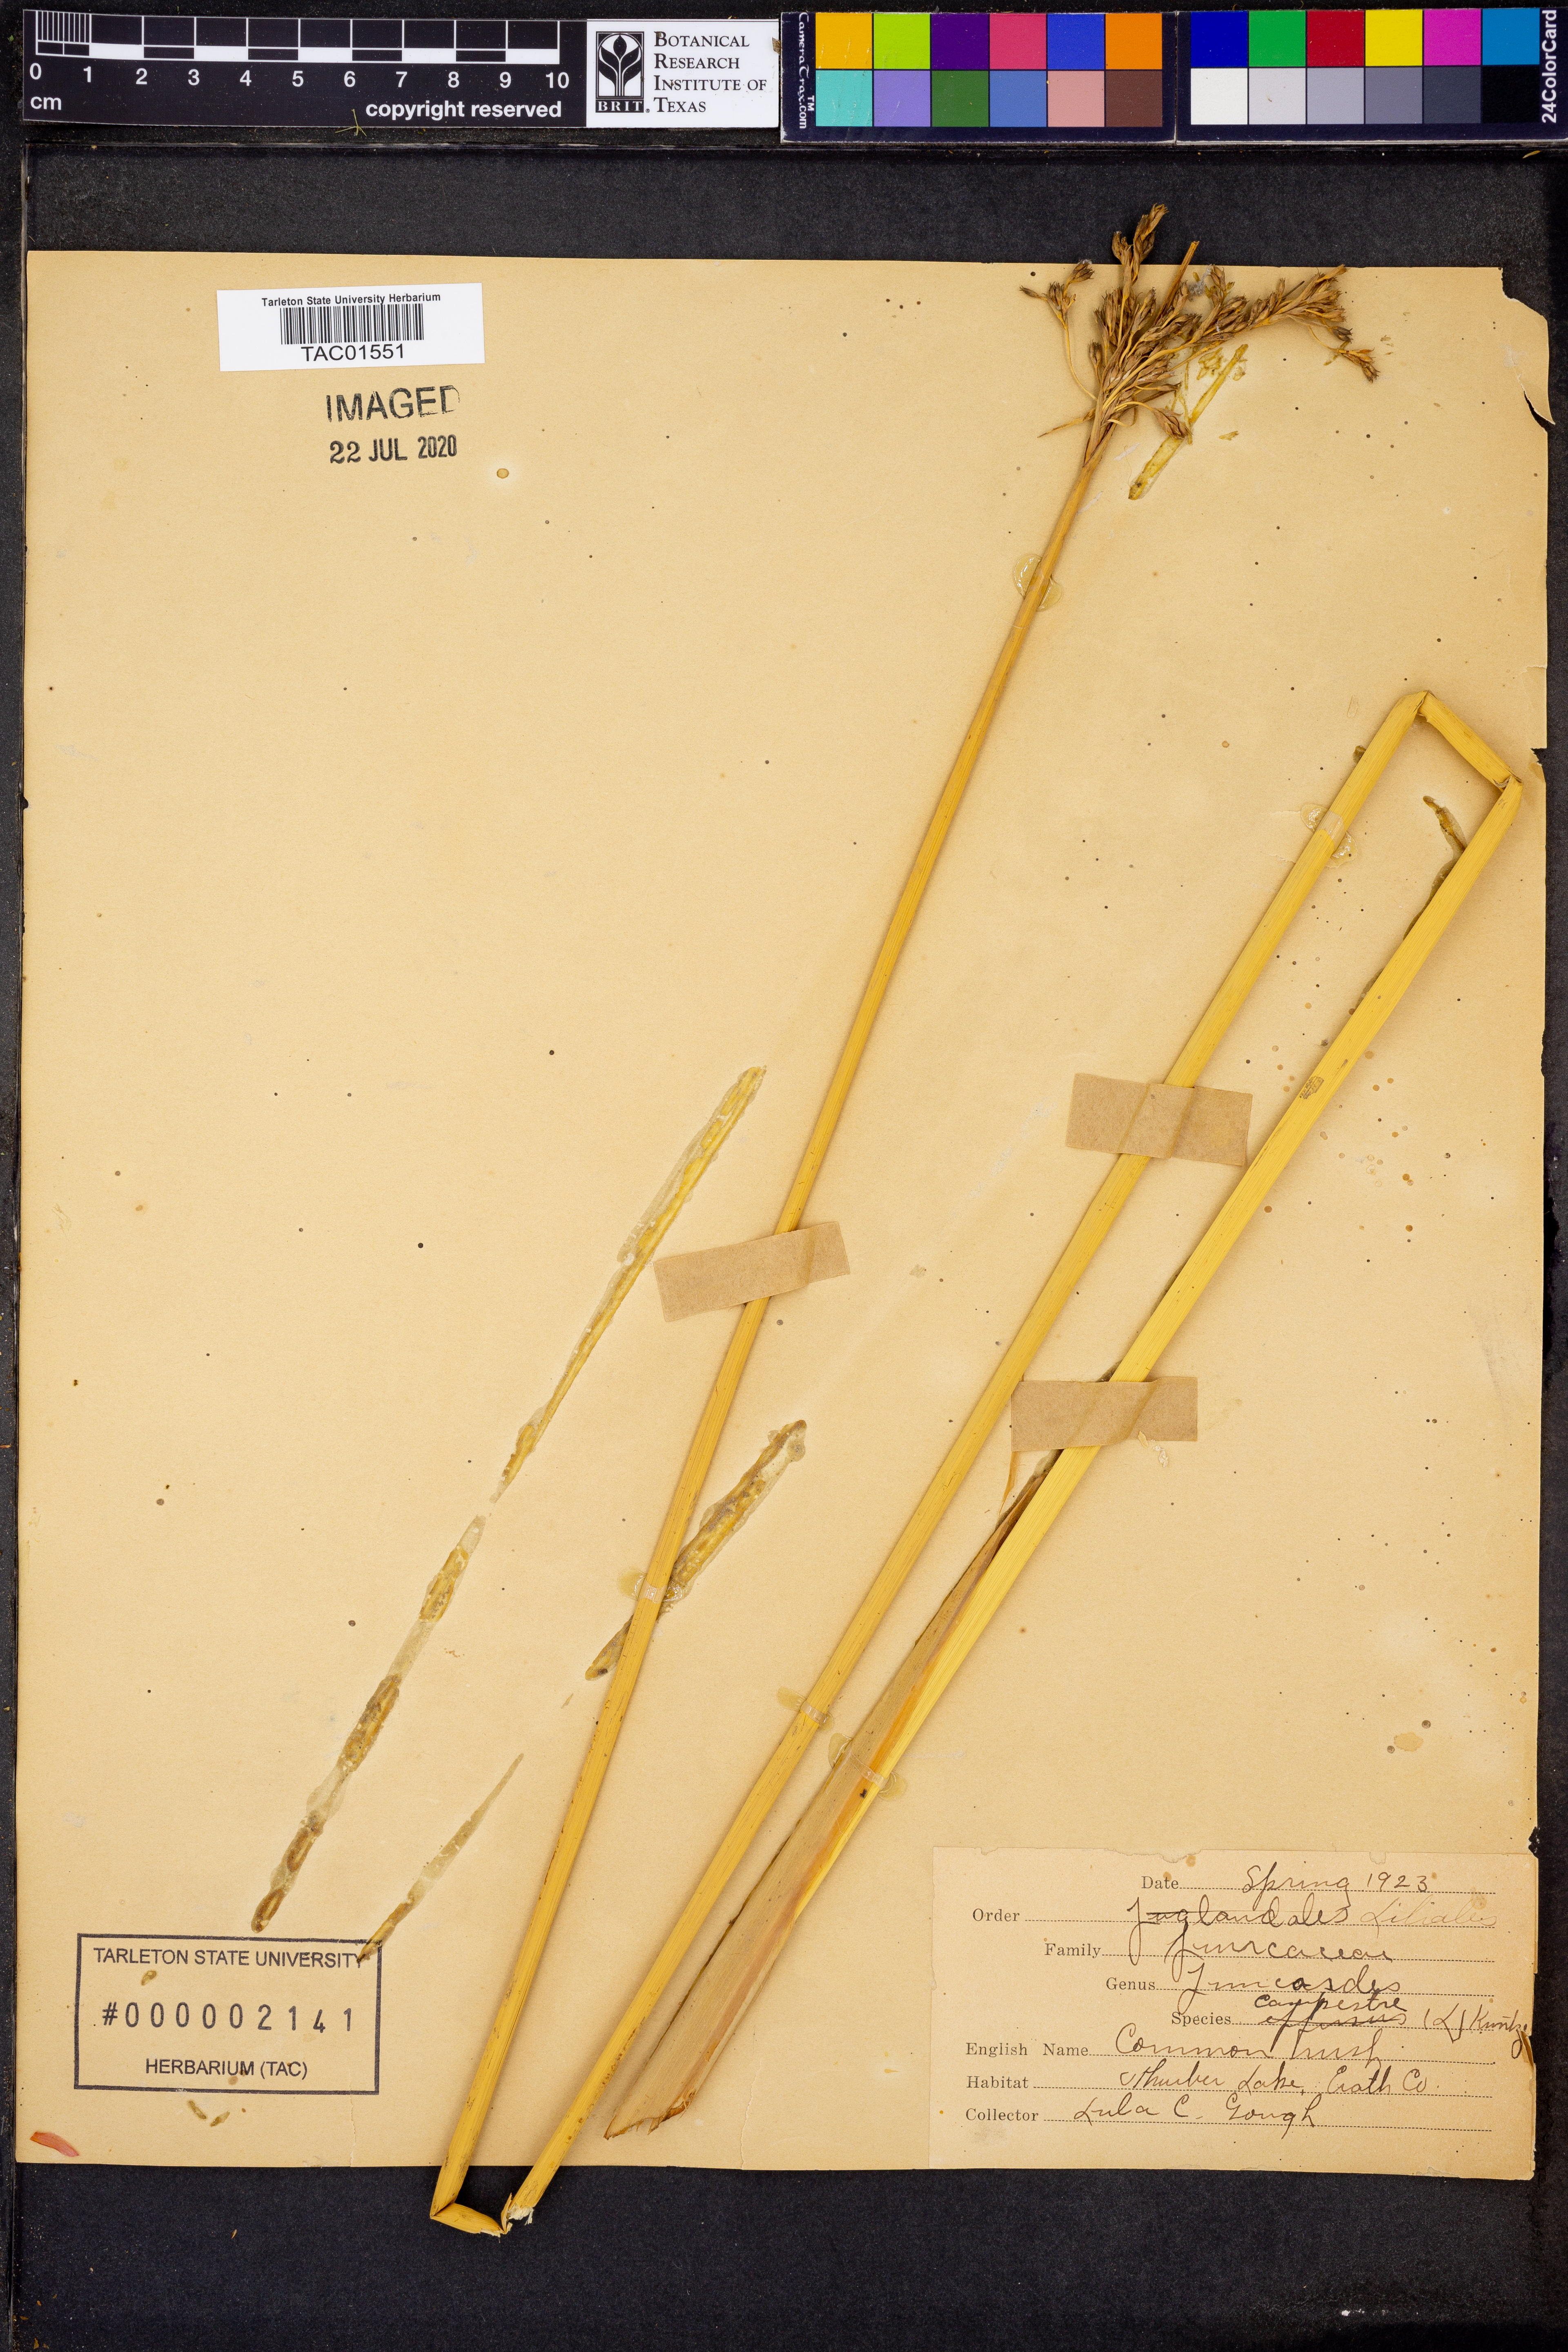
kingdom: Plantae
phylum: Tracheophyta
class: Liliopsida
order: Poales
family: Juncaceae
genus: Luzula
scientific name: Luzula mannii
